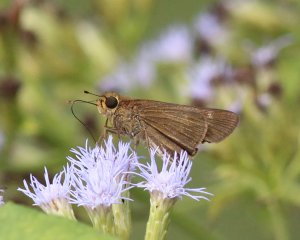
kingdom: Animalia
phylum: Arthropoda
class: Insecta
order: Lepidoptera
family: Hesperiidae
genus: Panoquina
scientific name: Panoquina hecebolus
